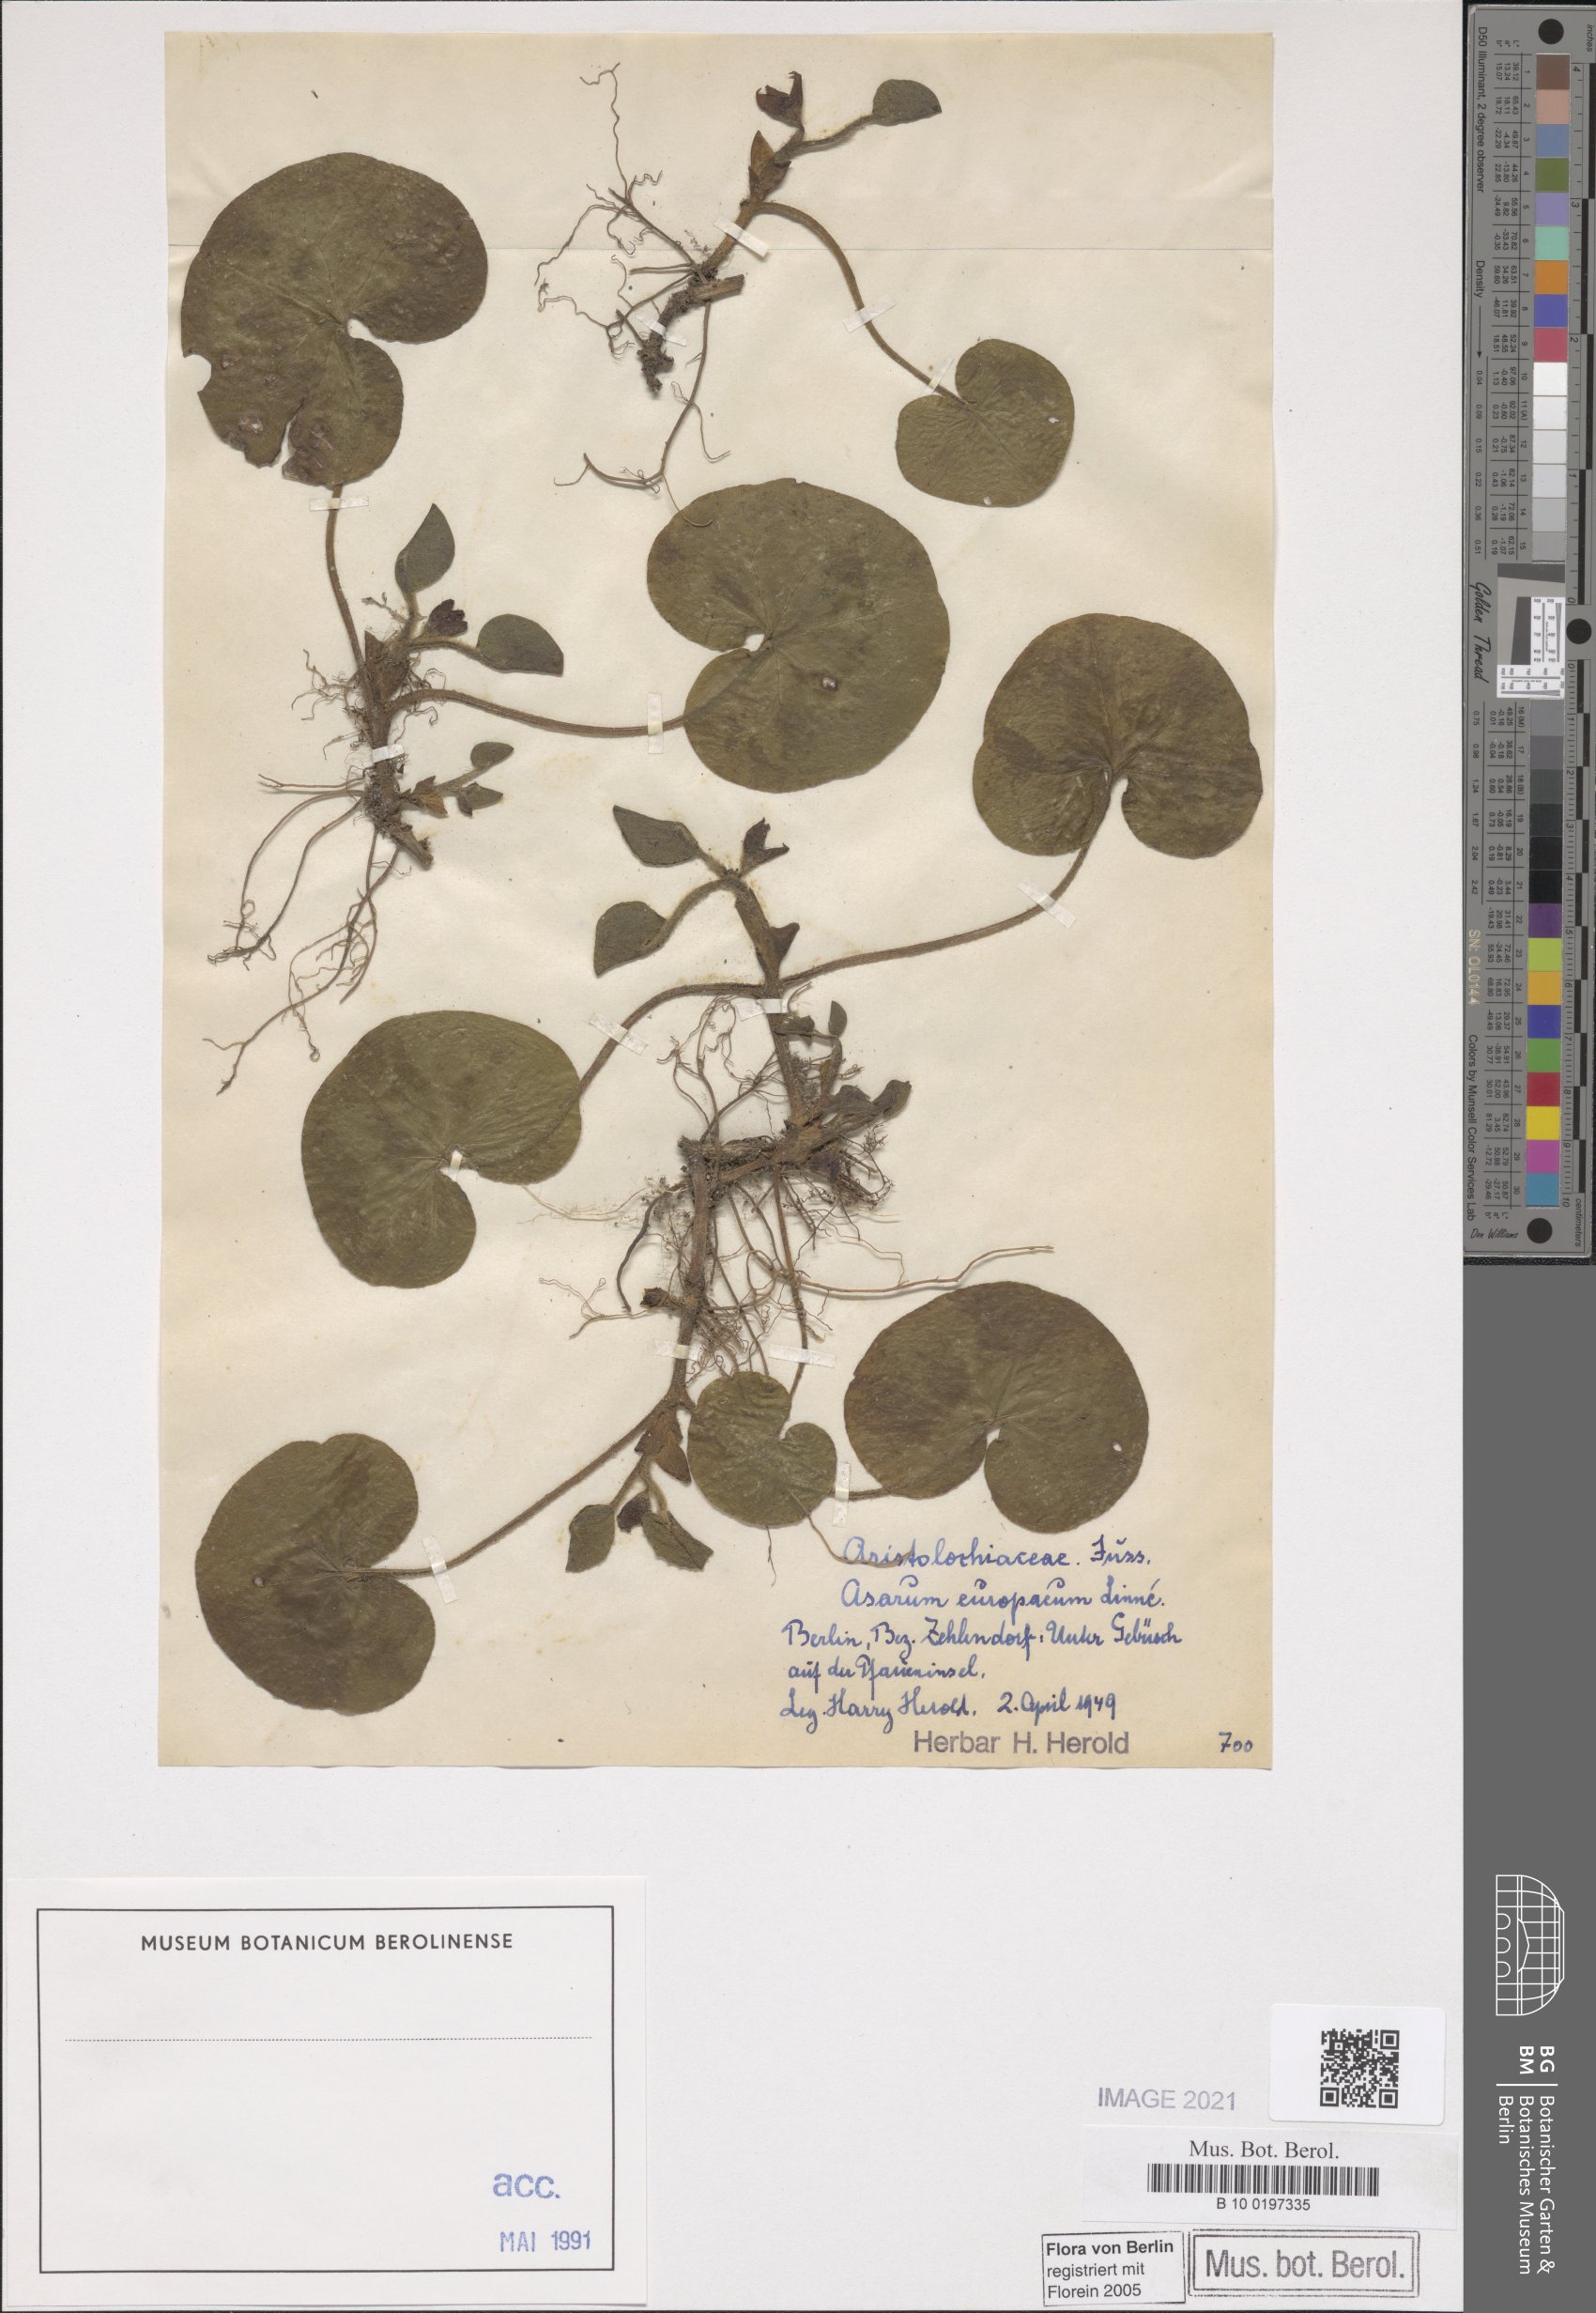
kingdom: Plantae
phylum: Tracheophyta
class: Magnoliopsida
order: Piperales
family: Aristolochiaceae
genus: Asarum
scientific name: Asarum europaeum
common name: Asarabacca
